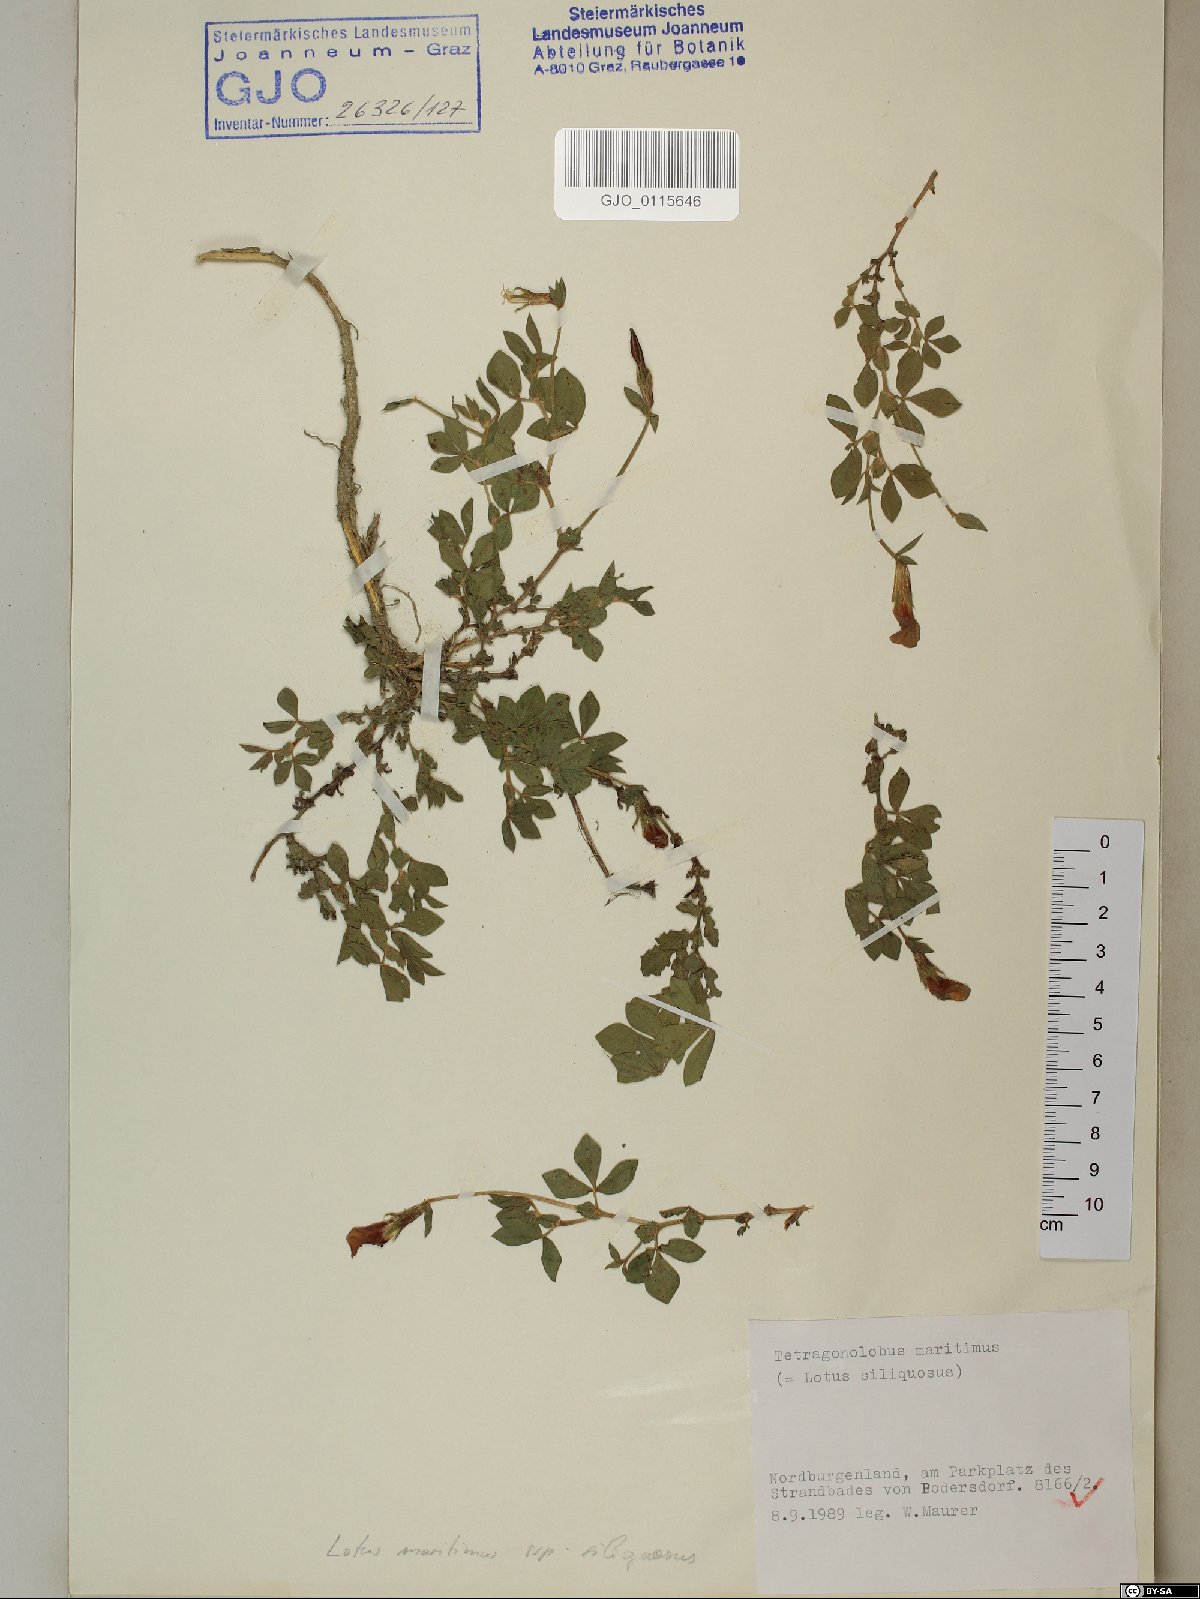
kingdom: Plantae
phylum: Tracheophyta
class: Magnoliopsida
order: Fabales
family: Fabaceae
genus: Lotus
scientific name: Lotus maritimus
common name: Dragon's-teeth
